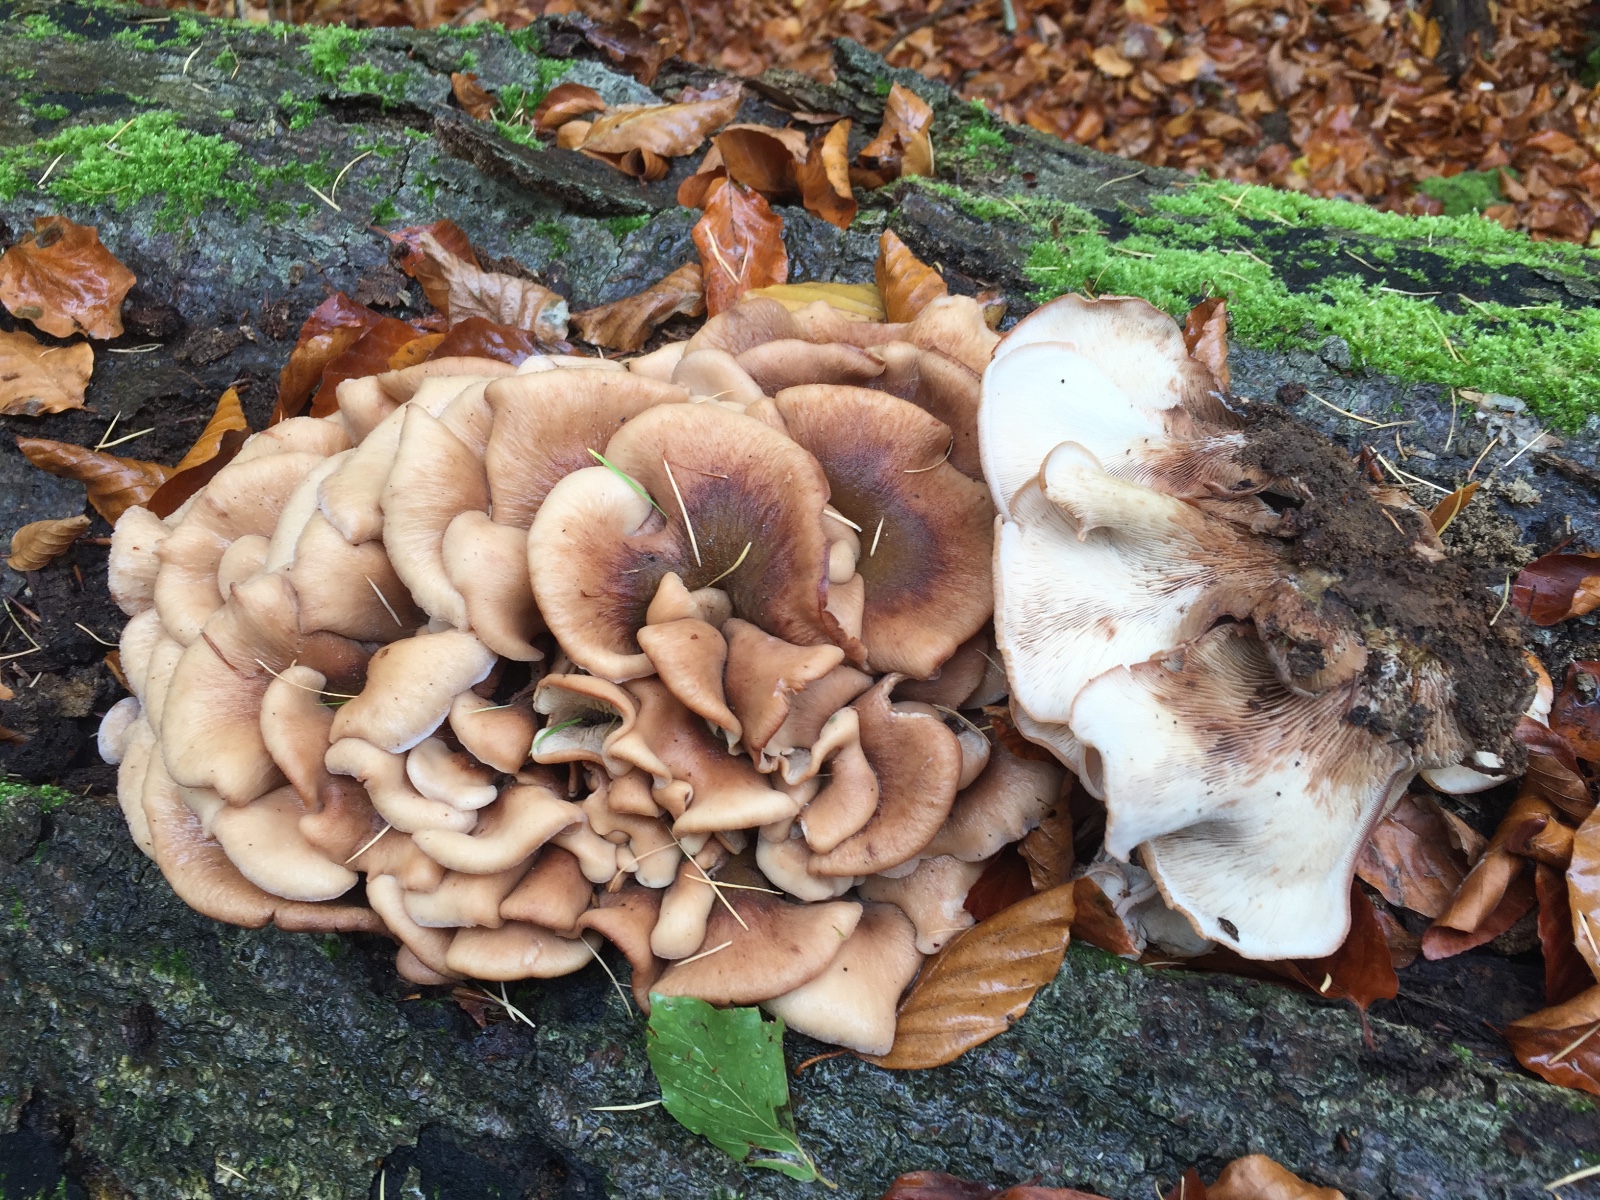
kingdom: Fungi
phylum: Basidiomycota
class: Agaricomycetes
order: Russulales
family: Auriscalpiaceae
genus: Lentinellus
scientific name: Lentinellus ursinus
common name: børstehåret savbladhat
